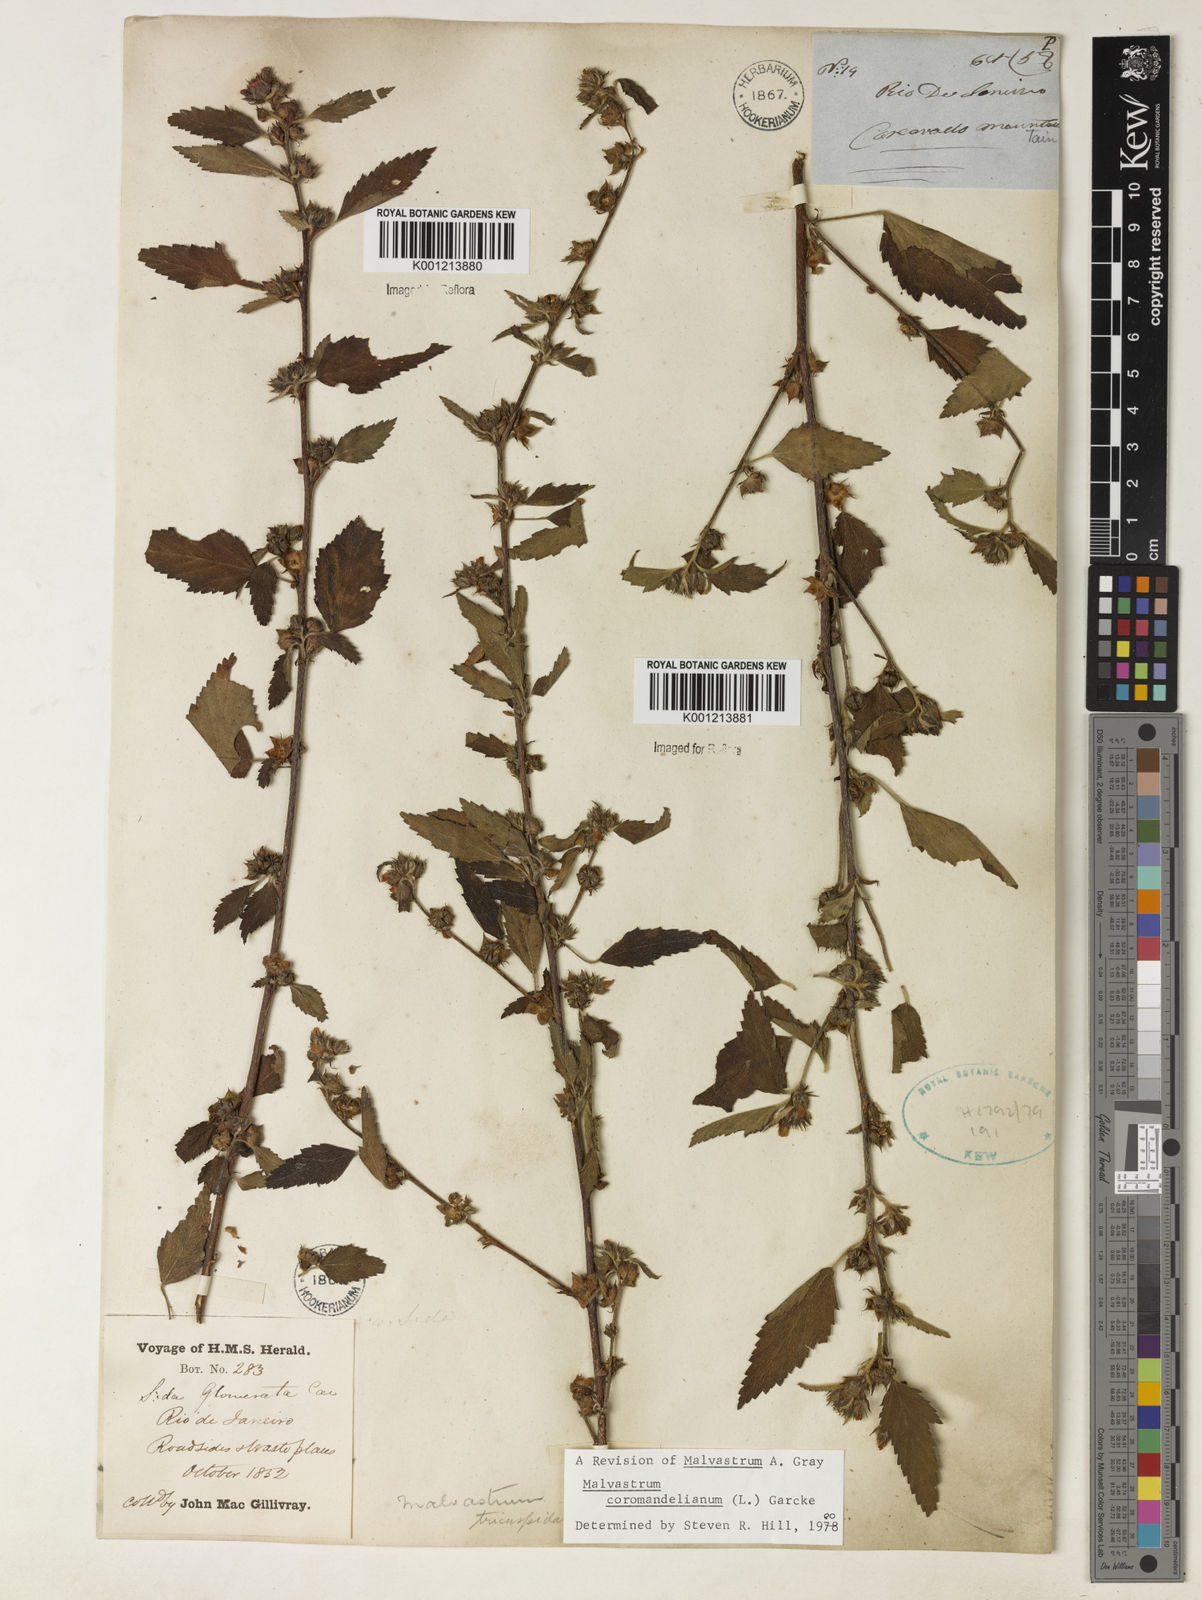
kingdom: Plantae
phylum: Tracheophyta
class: Magnoliopsida
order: Malvales
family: Malvaceae
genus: Malvastrum
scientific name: Malvastrum coromandelianum
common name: Threelobe false mallow
